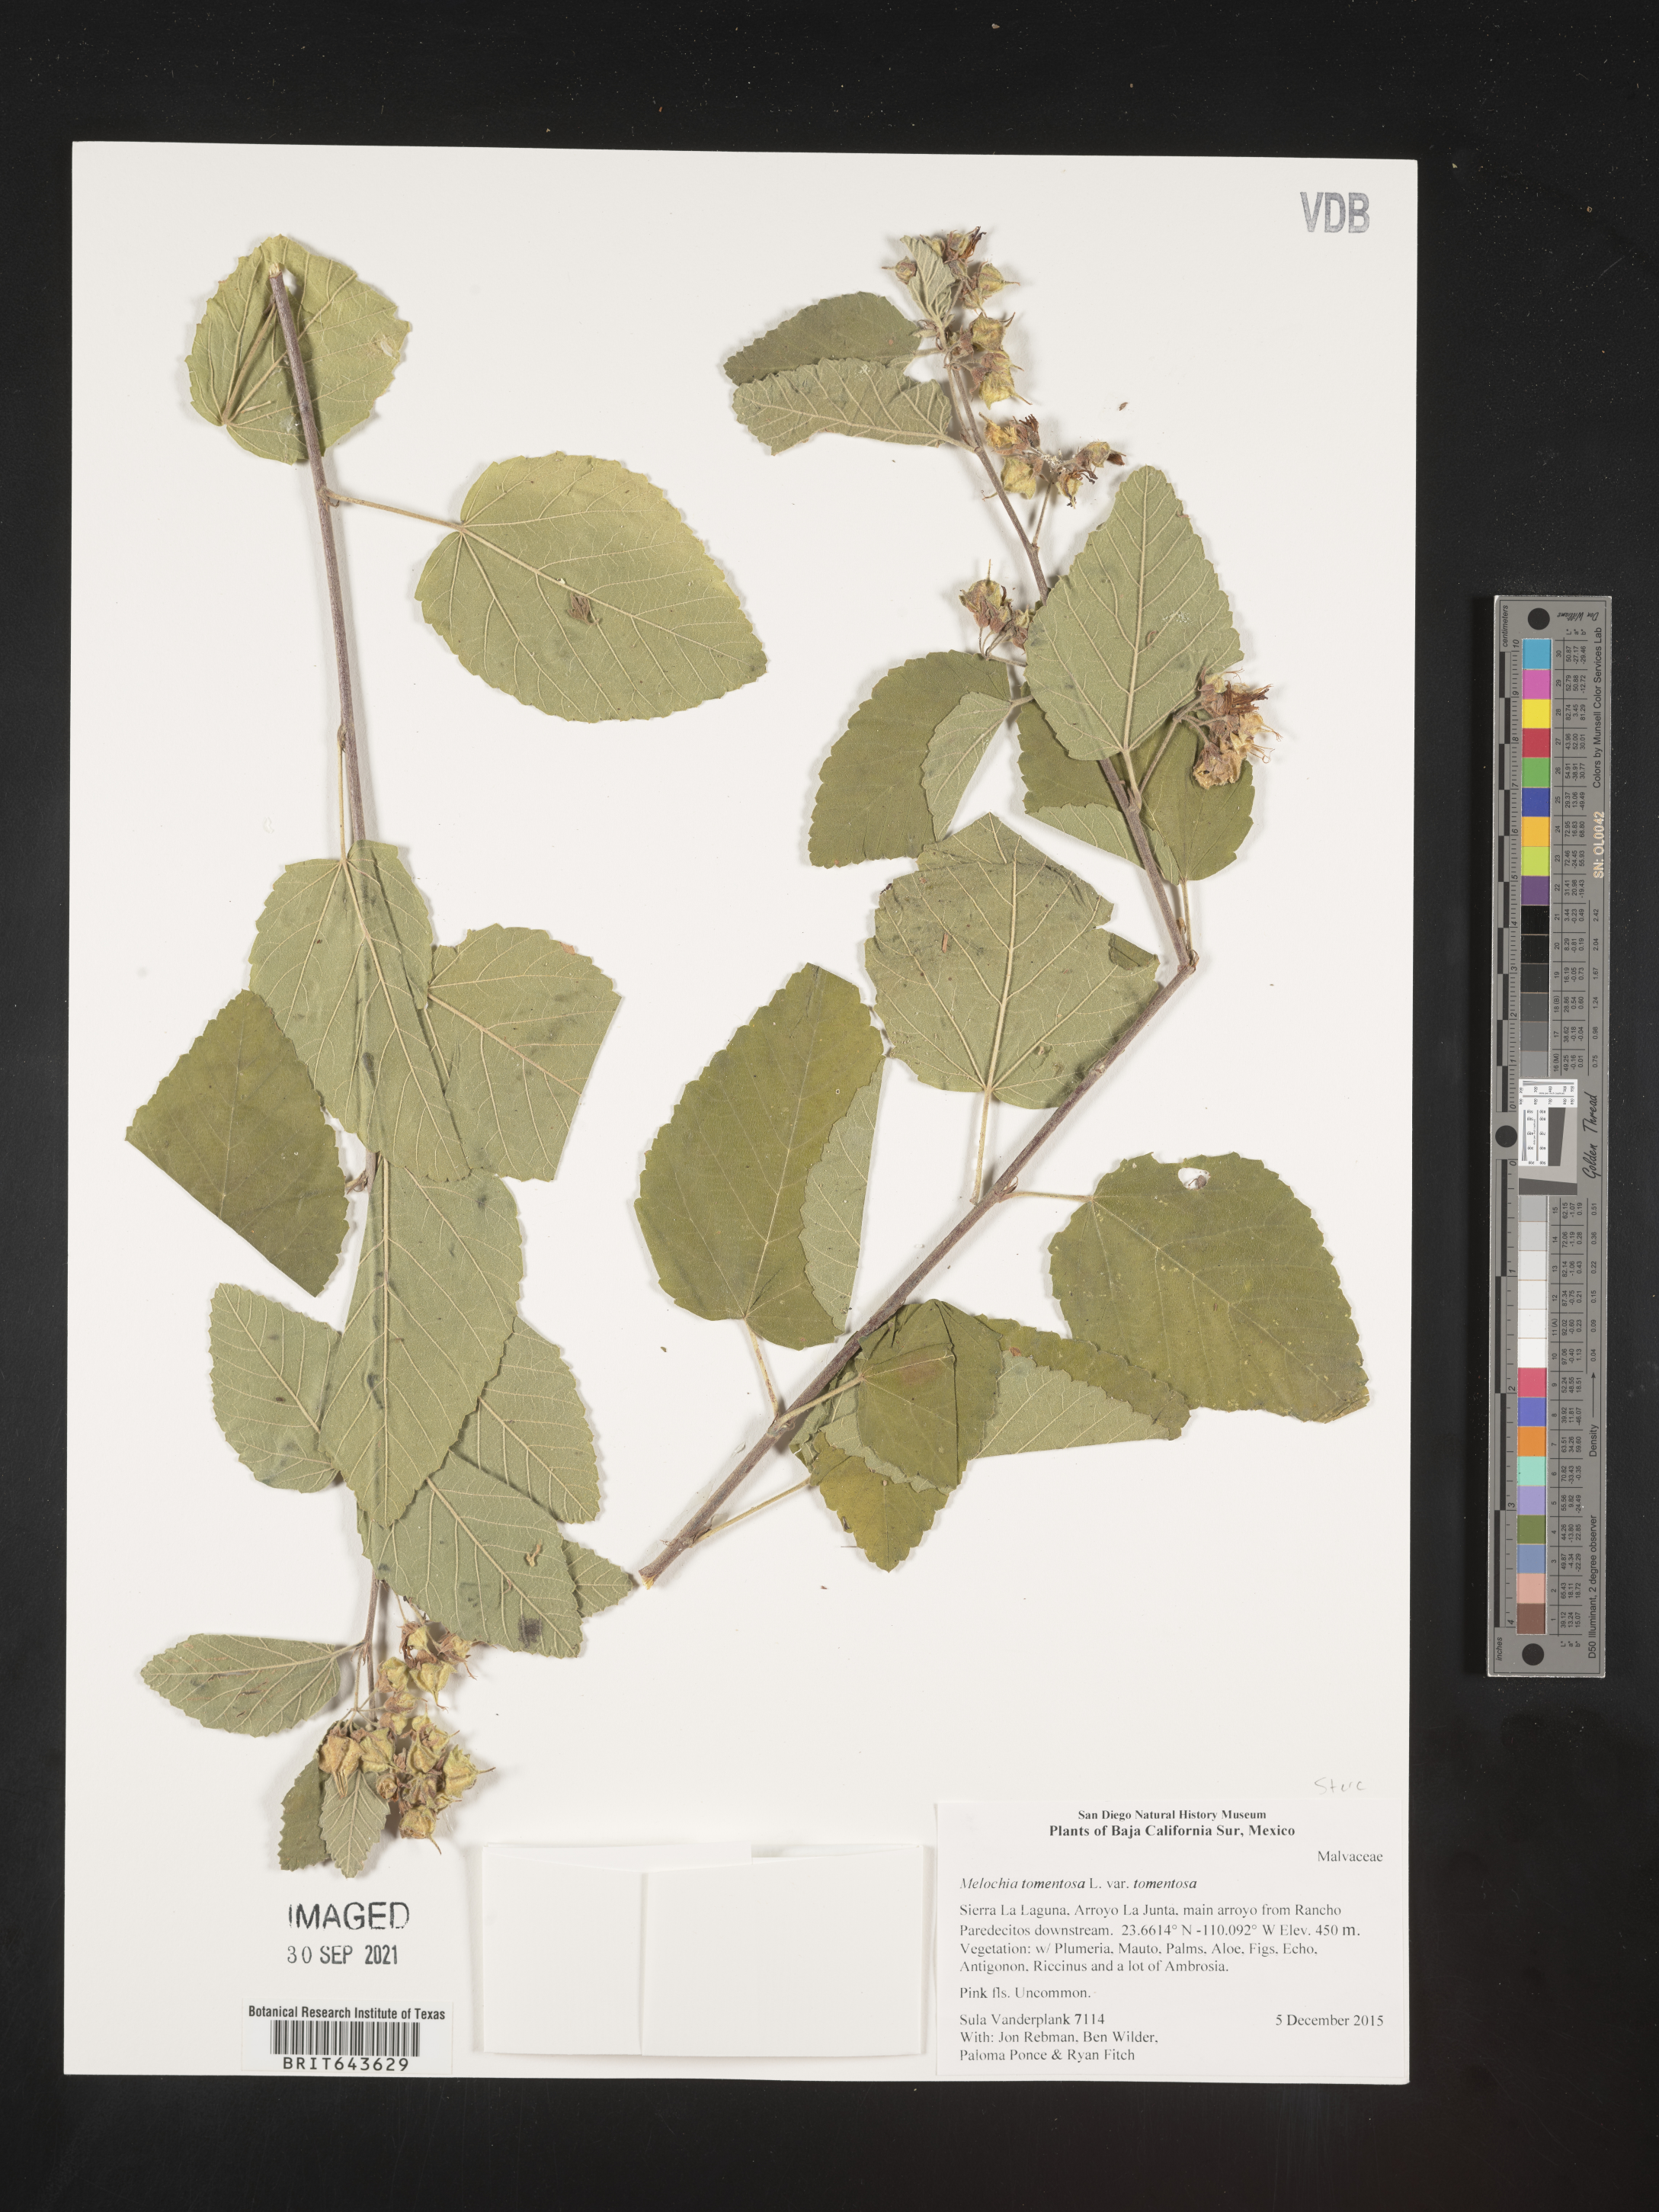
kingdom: Plantae
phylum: Tracheophyta
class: Magnoliopsida
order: Malvales
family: Malvaceae
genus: Melochia
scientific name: Melochia
